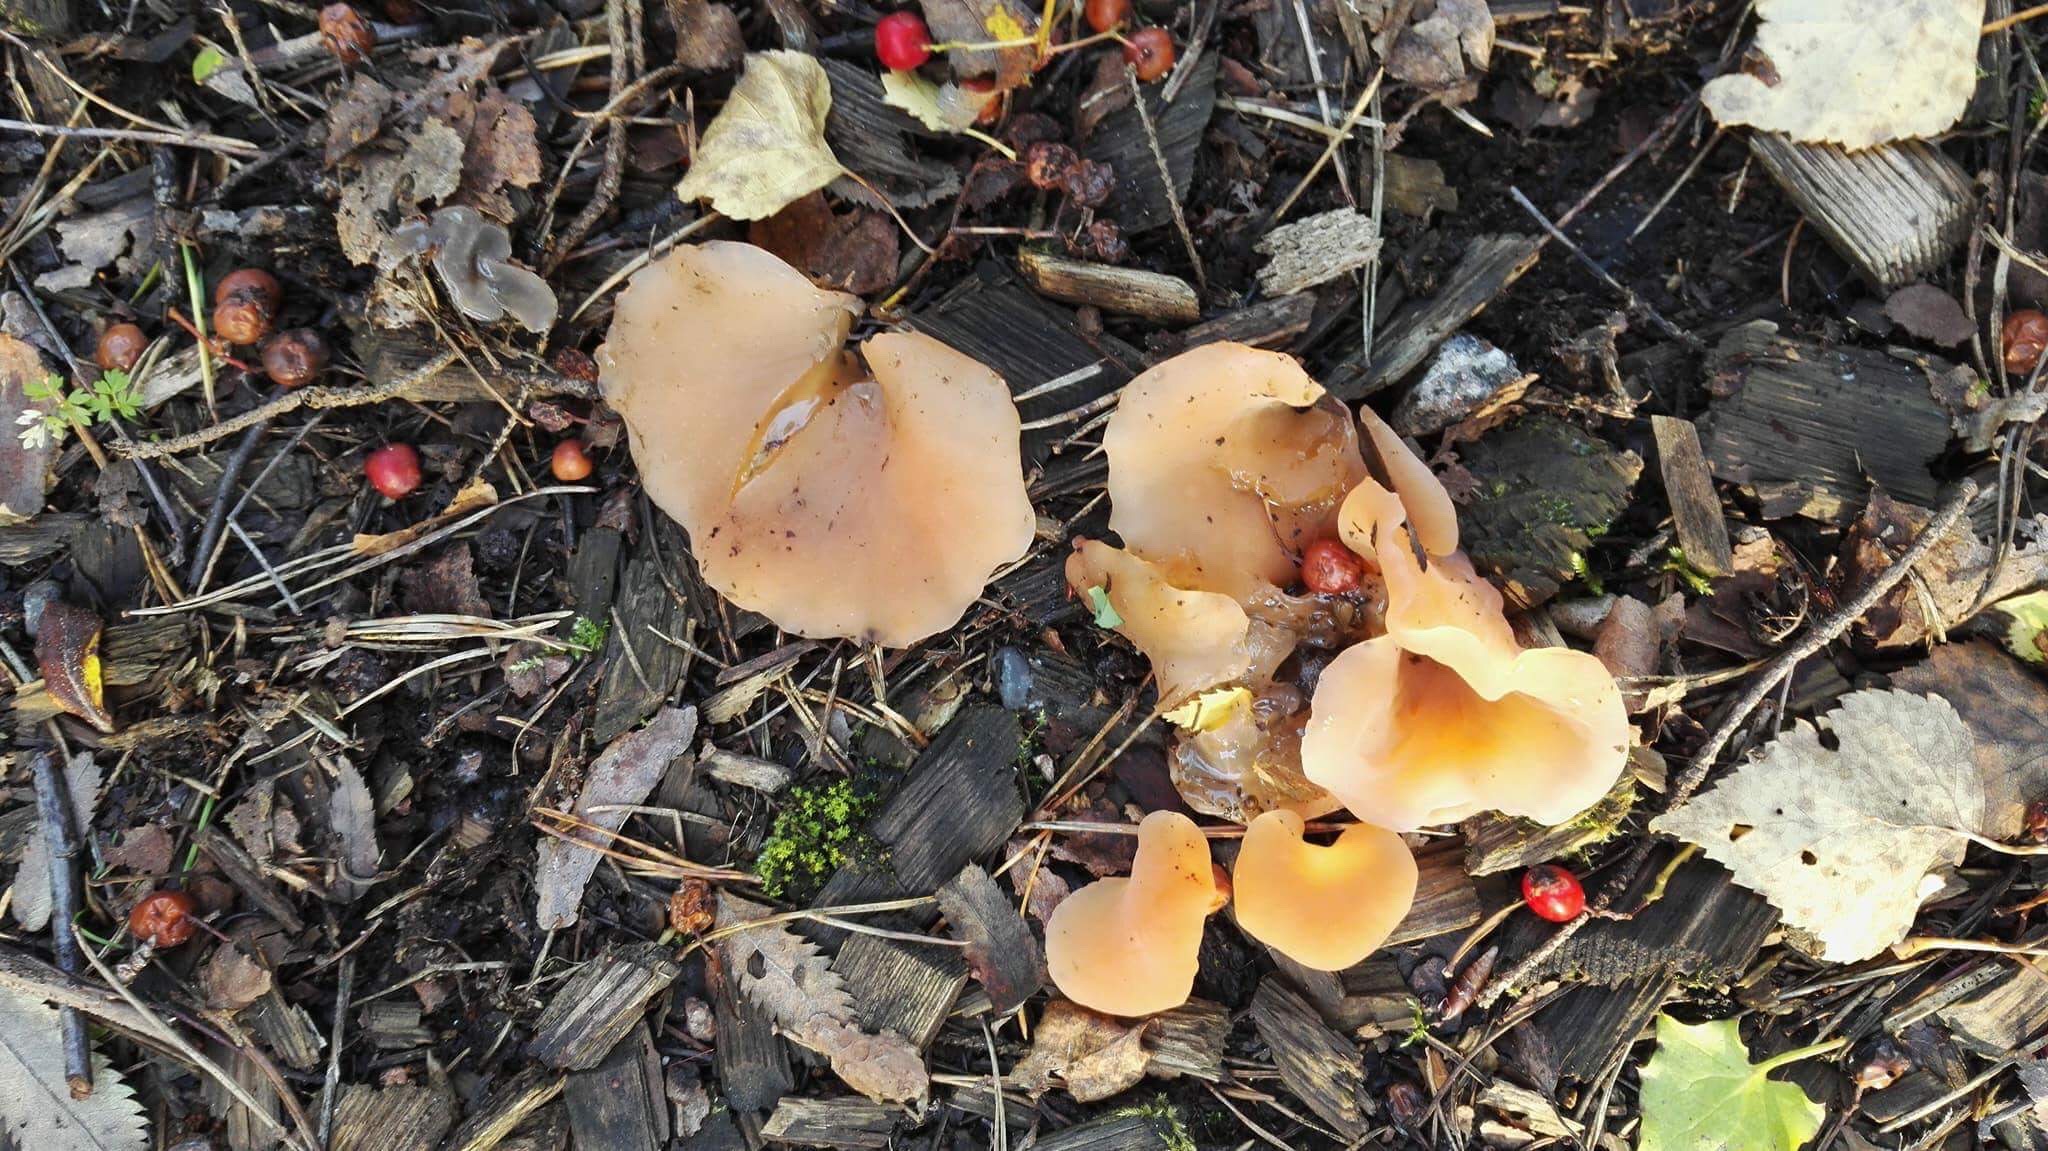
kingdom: Fungi
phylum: Basidiomycota
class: Agaricomycetes
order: Auriculariales
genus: Guepinia
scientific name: Guepinia helvelloides
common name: Salmon salad
